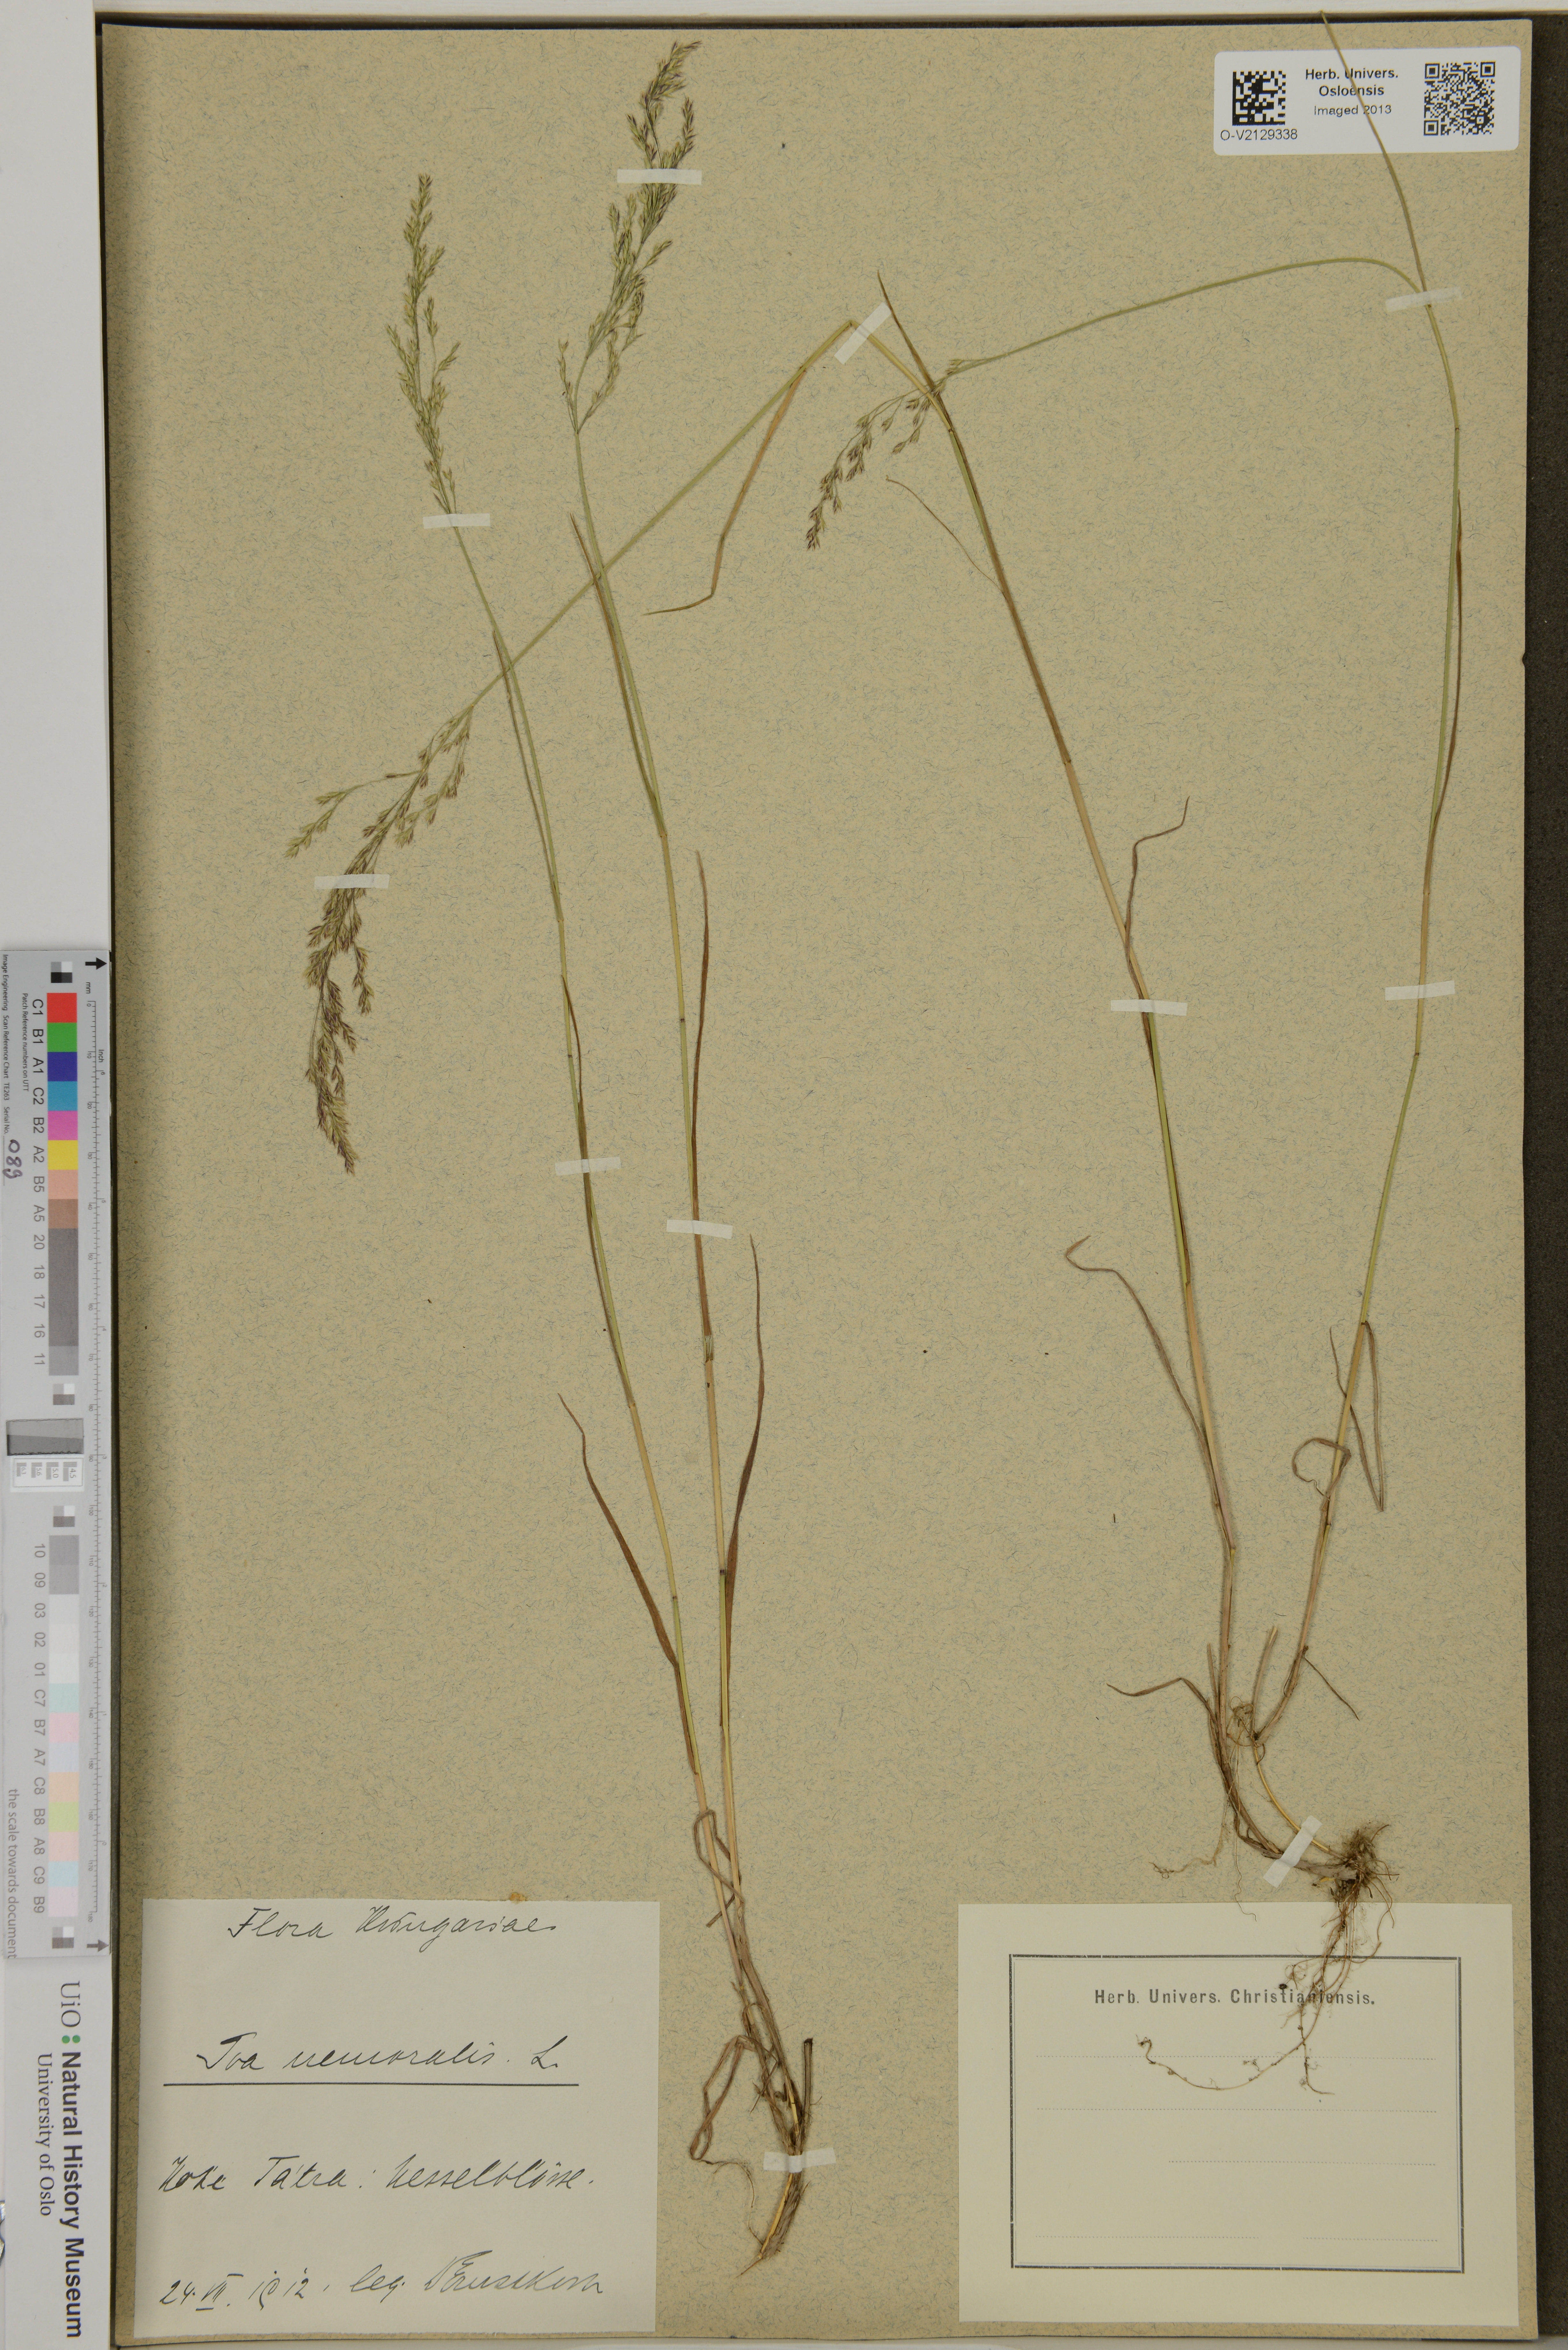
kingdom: Plantae
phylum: Tracheophyta
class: Liliopsida
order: Poales
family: Poaceae
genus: Poa
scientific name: Poa nemoralis
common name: Wood bluegrass
